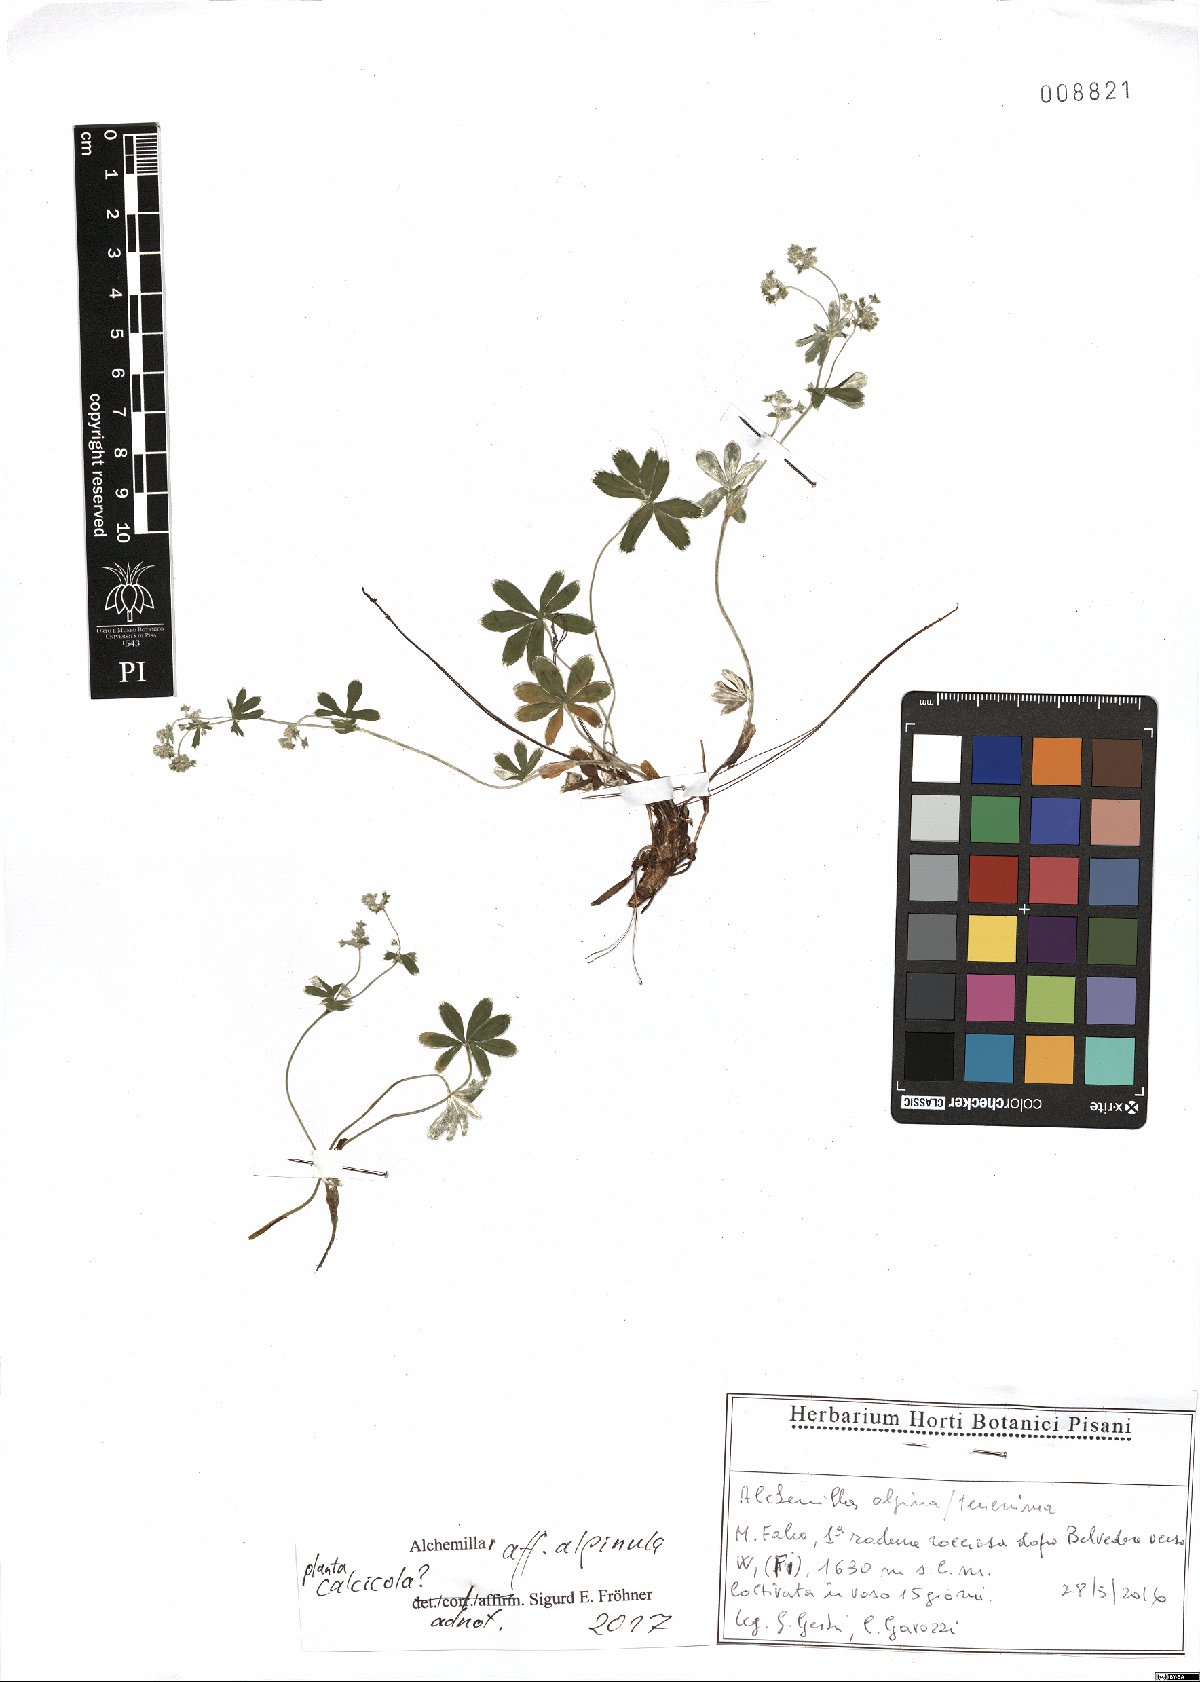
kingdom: Plantae
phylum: Tracheophyta
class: Magnoliopsida
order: Rosales
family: Rosaceae
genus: Alchemilla
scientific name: Alchemilla alpinula
